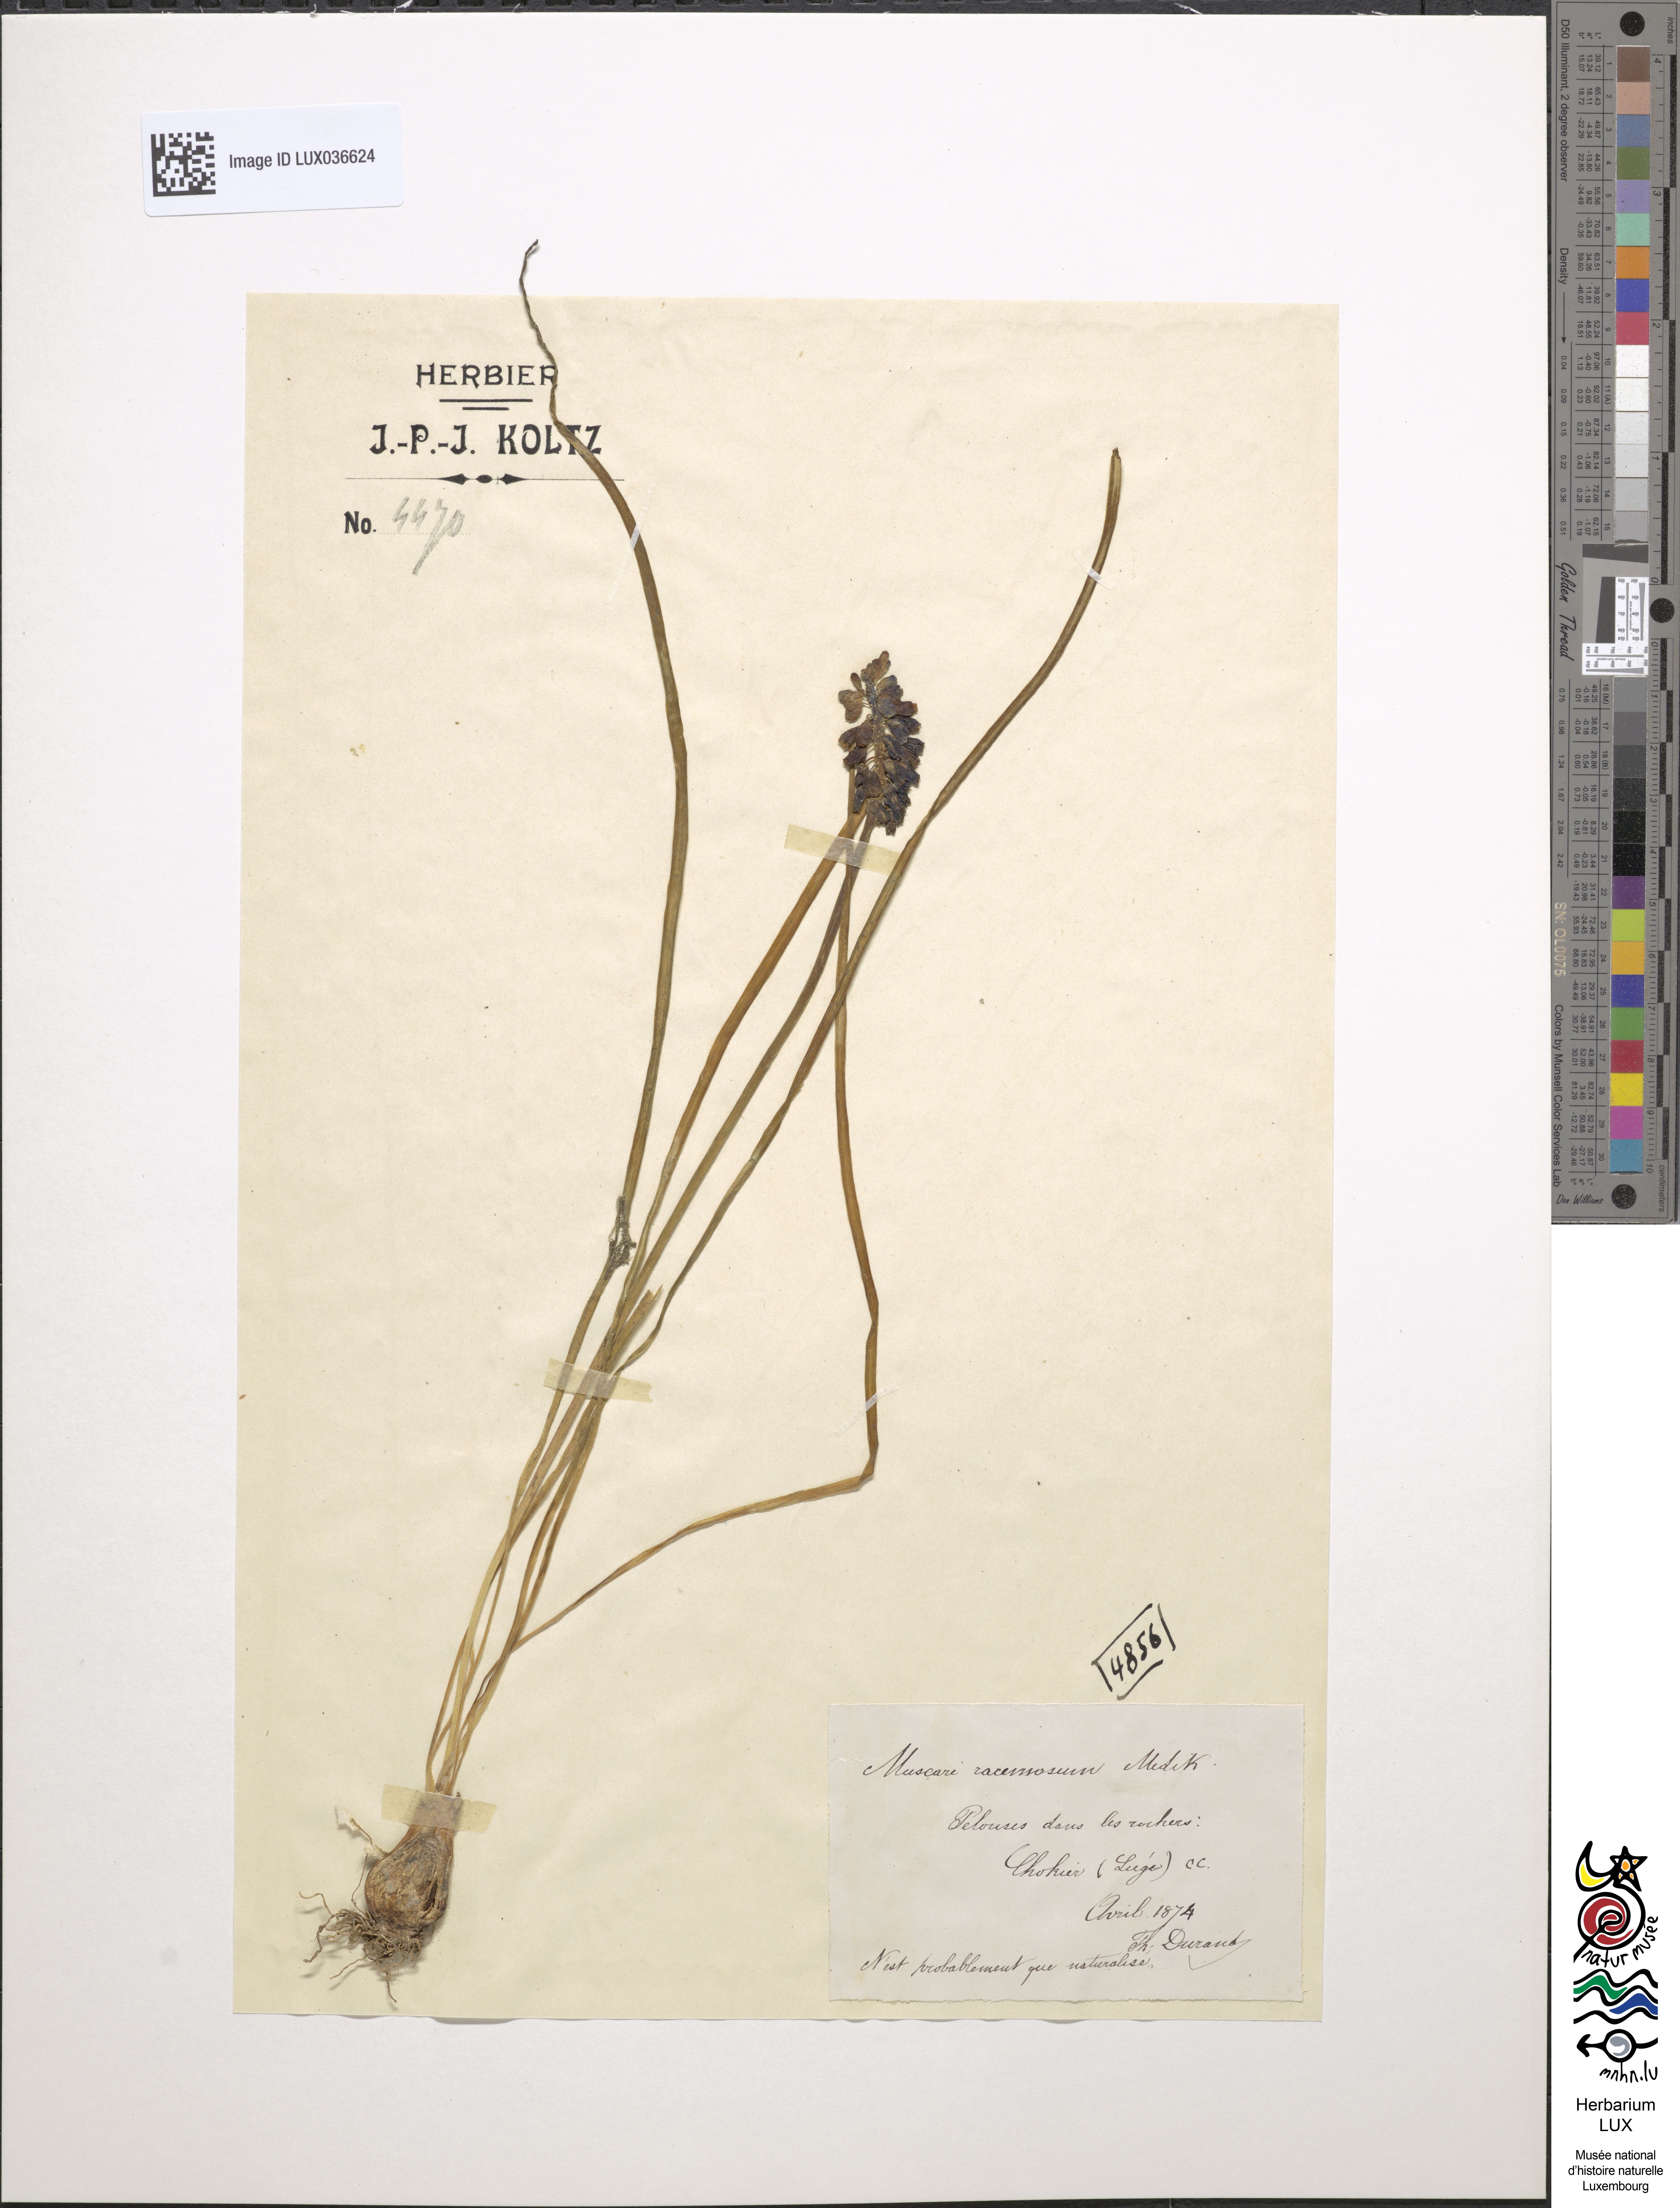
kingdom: Plantae
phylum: Tracheophyta
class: Liliopsida
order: Asparagales
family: Asparagaceae
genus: Muscari
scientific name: Muscari neglectum
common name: Grape-hyacinth
